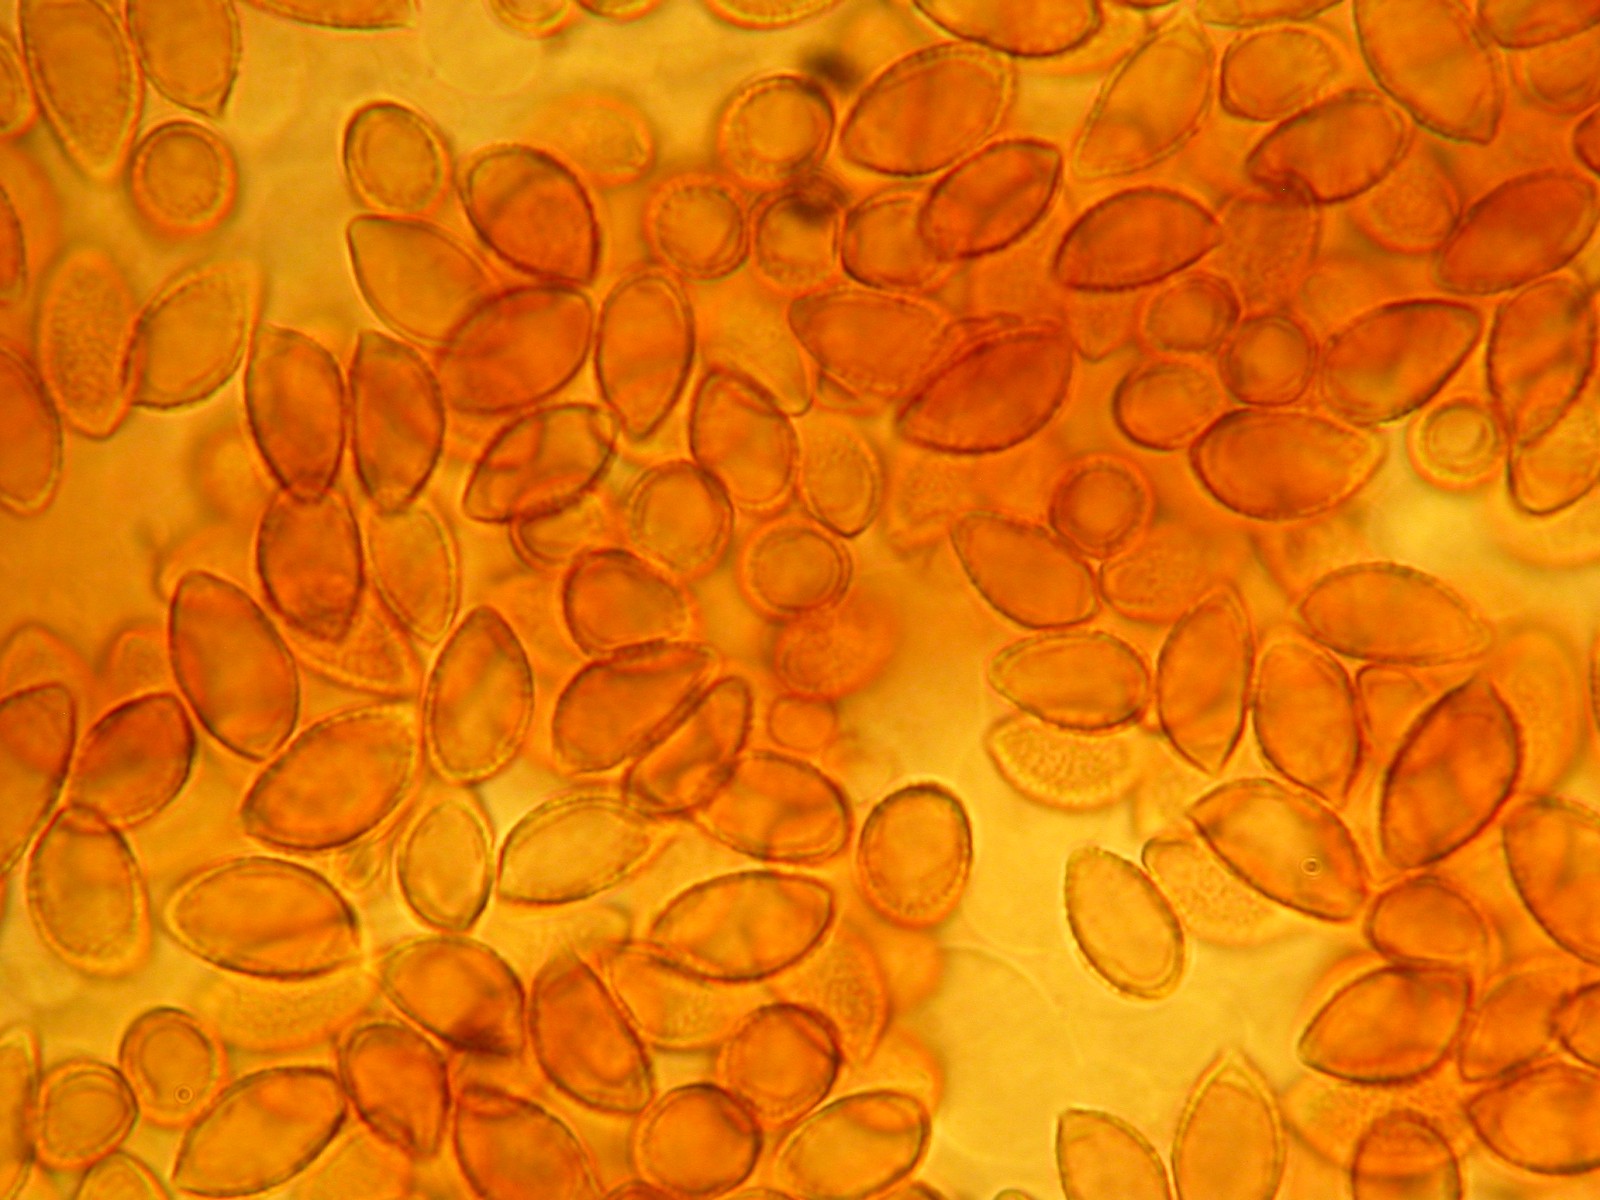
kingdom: Fungi
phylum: Basidiomycota
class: Agaricomycetes
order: Agaricales
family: Hymenogastraceae
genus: Hebeloma
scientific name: Hebeloma
